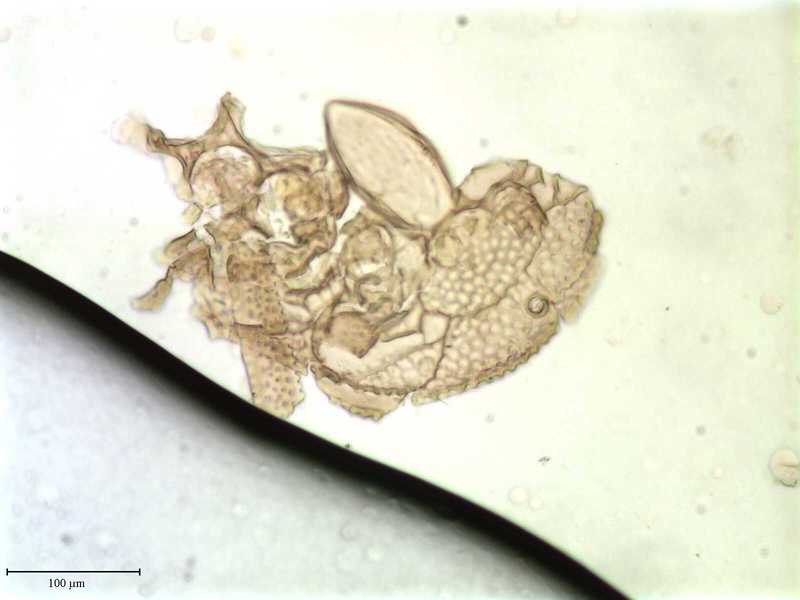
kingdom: Animalia
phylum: Arthropoda
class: Arachnida
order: Mesostigmata
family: Trachyuropodidae
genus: Trachyuropoda
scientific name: Trachyuropoda
